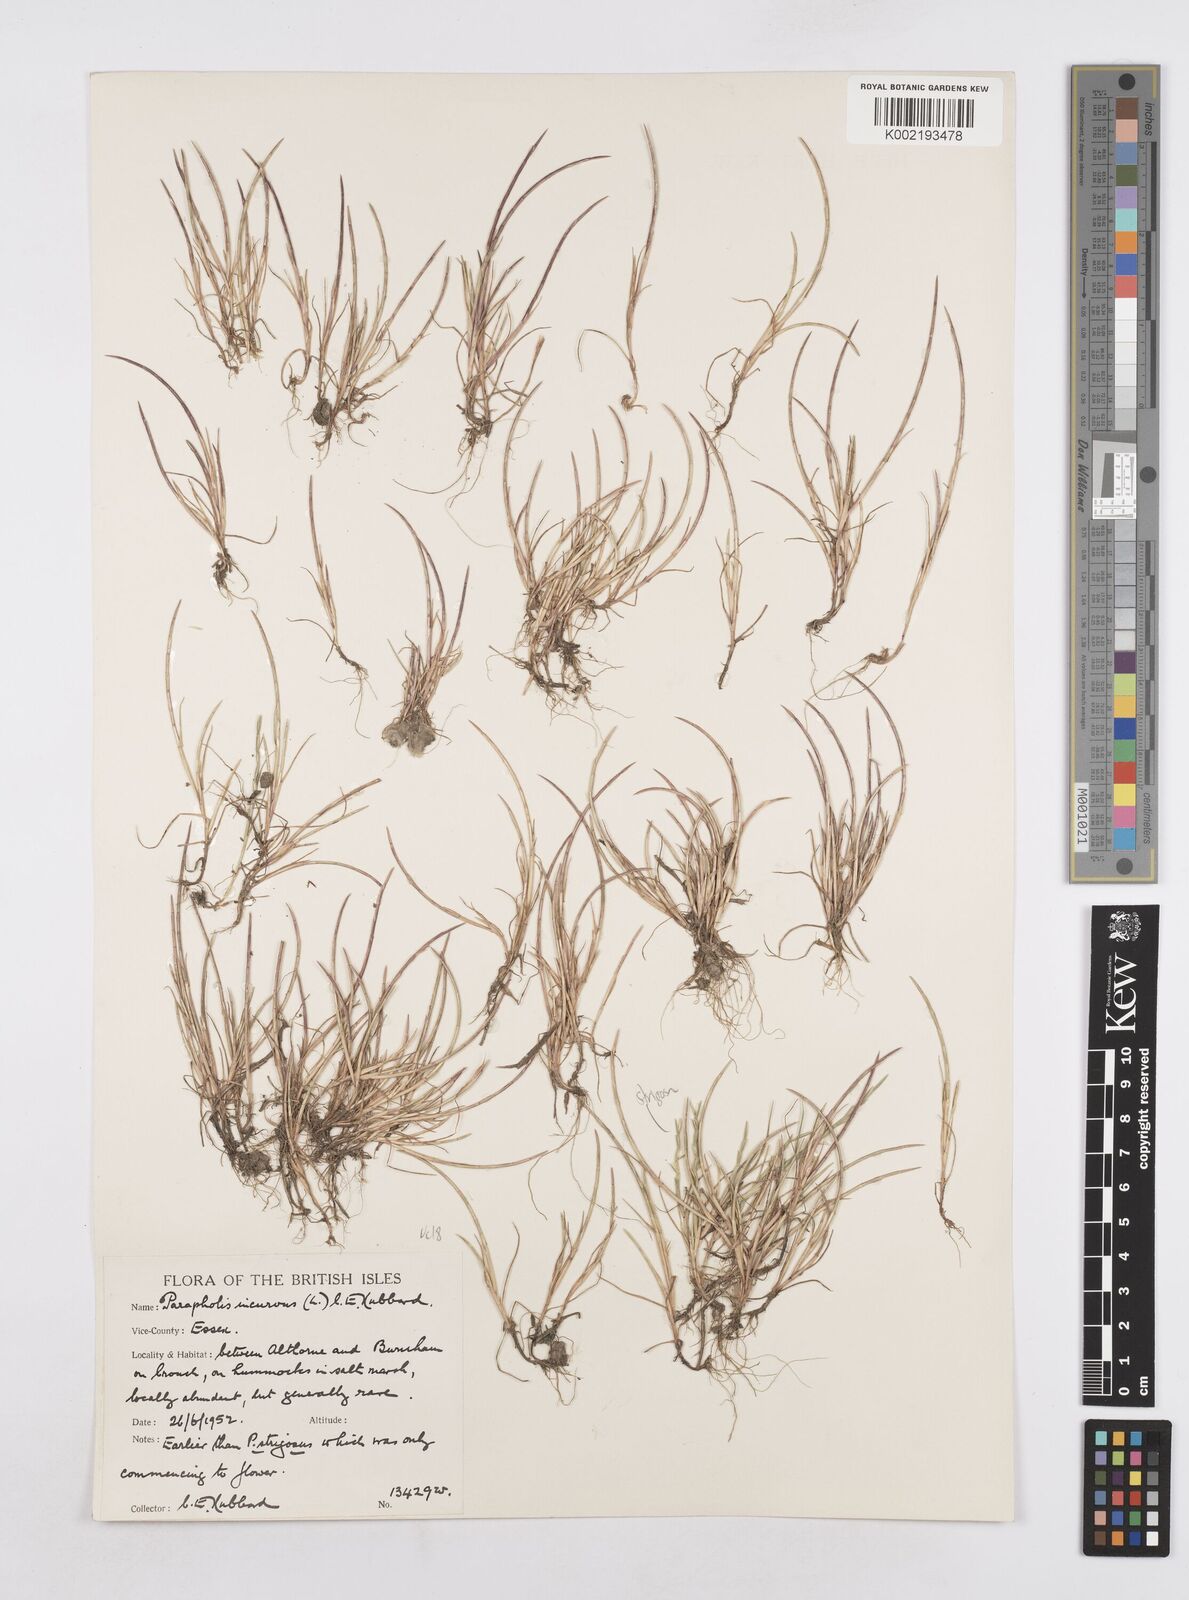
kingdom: Plantae
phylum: Tracheophyta
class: Liliopsida
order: Poales
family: Poaceae
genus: Parapholis
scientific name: Parapholis incurva
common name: Curved sicklegrass
